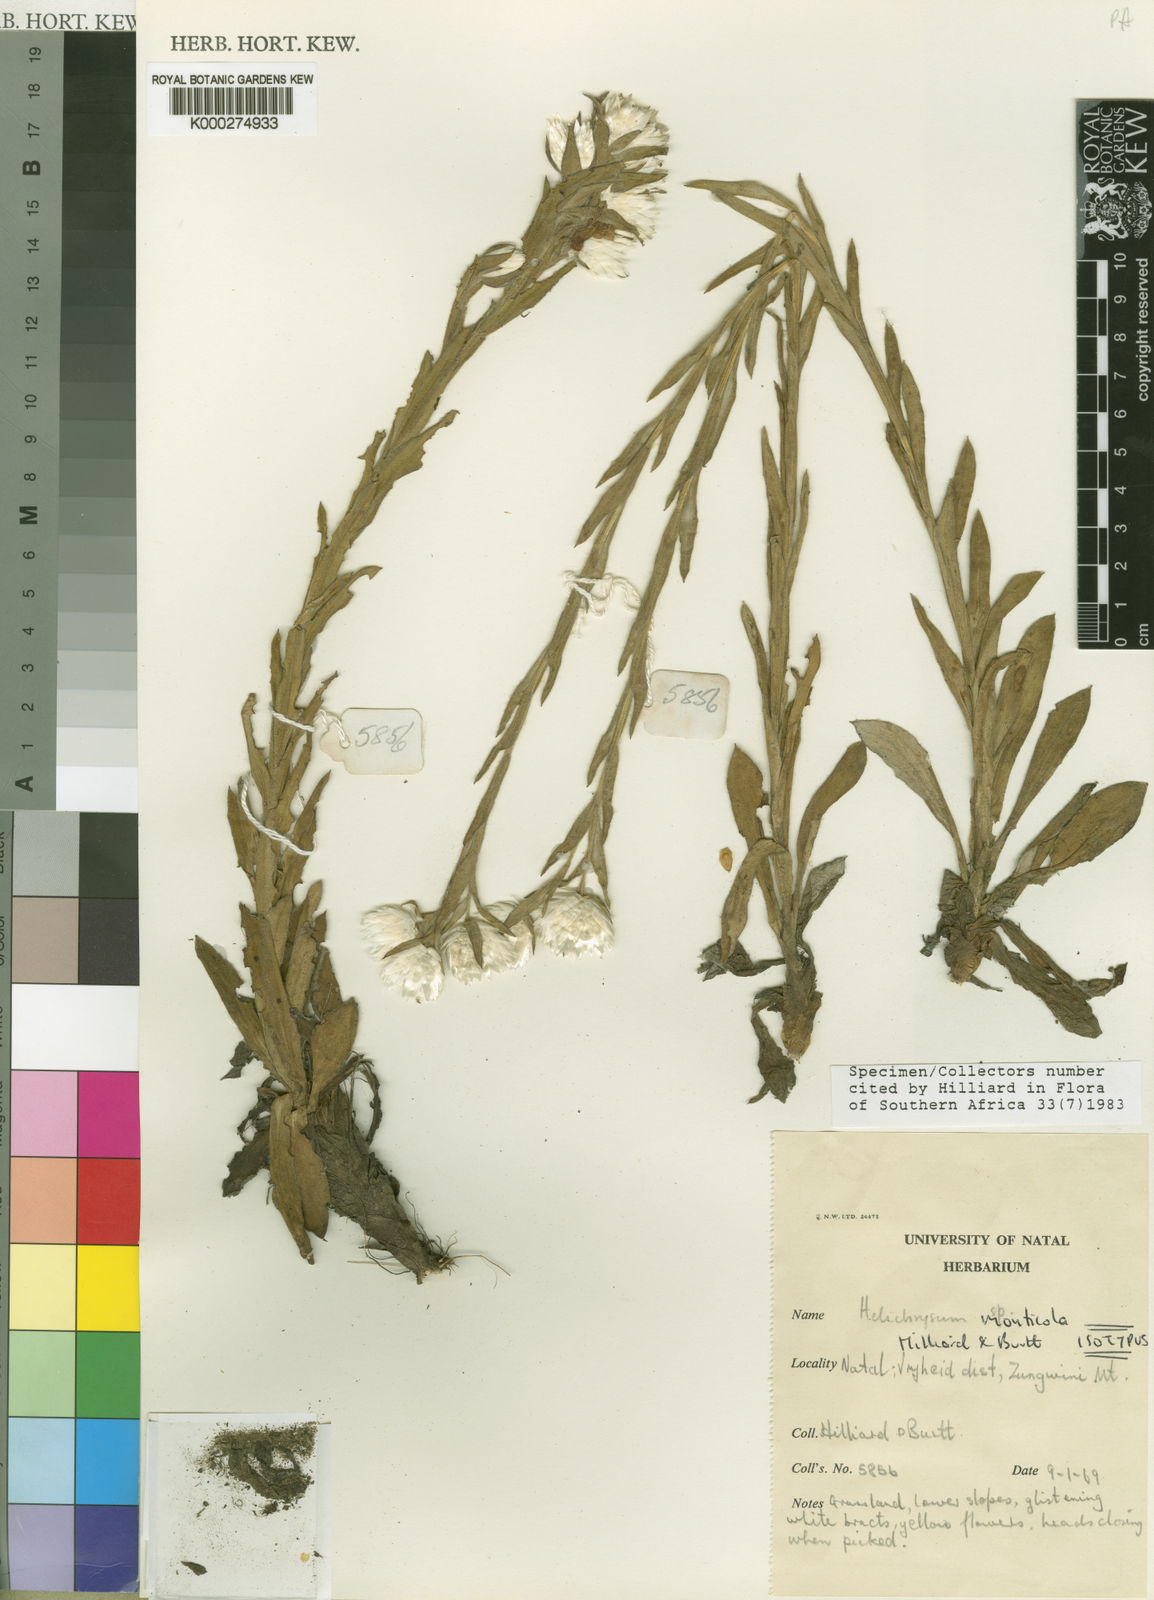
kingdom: Plantae
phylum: Tracheophyta
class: Magnoliopsida
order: Asterales
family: Asteraceae
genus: Helichrysum
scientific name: Helichrysum monticola
